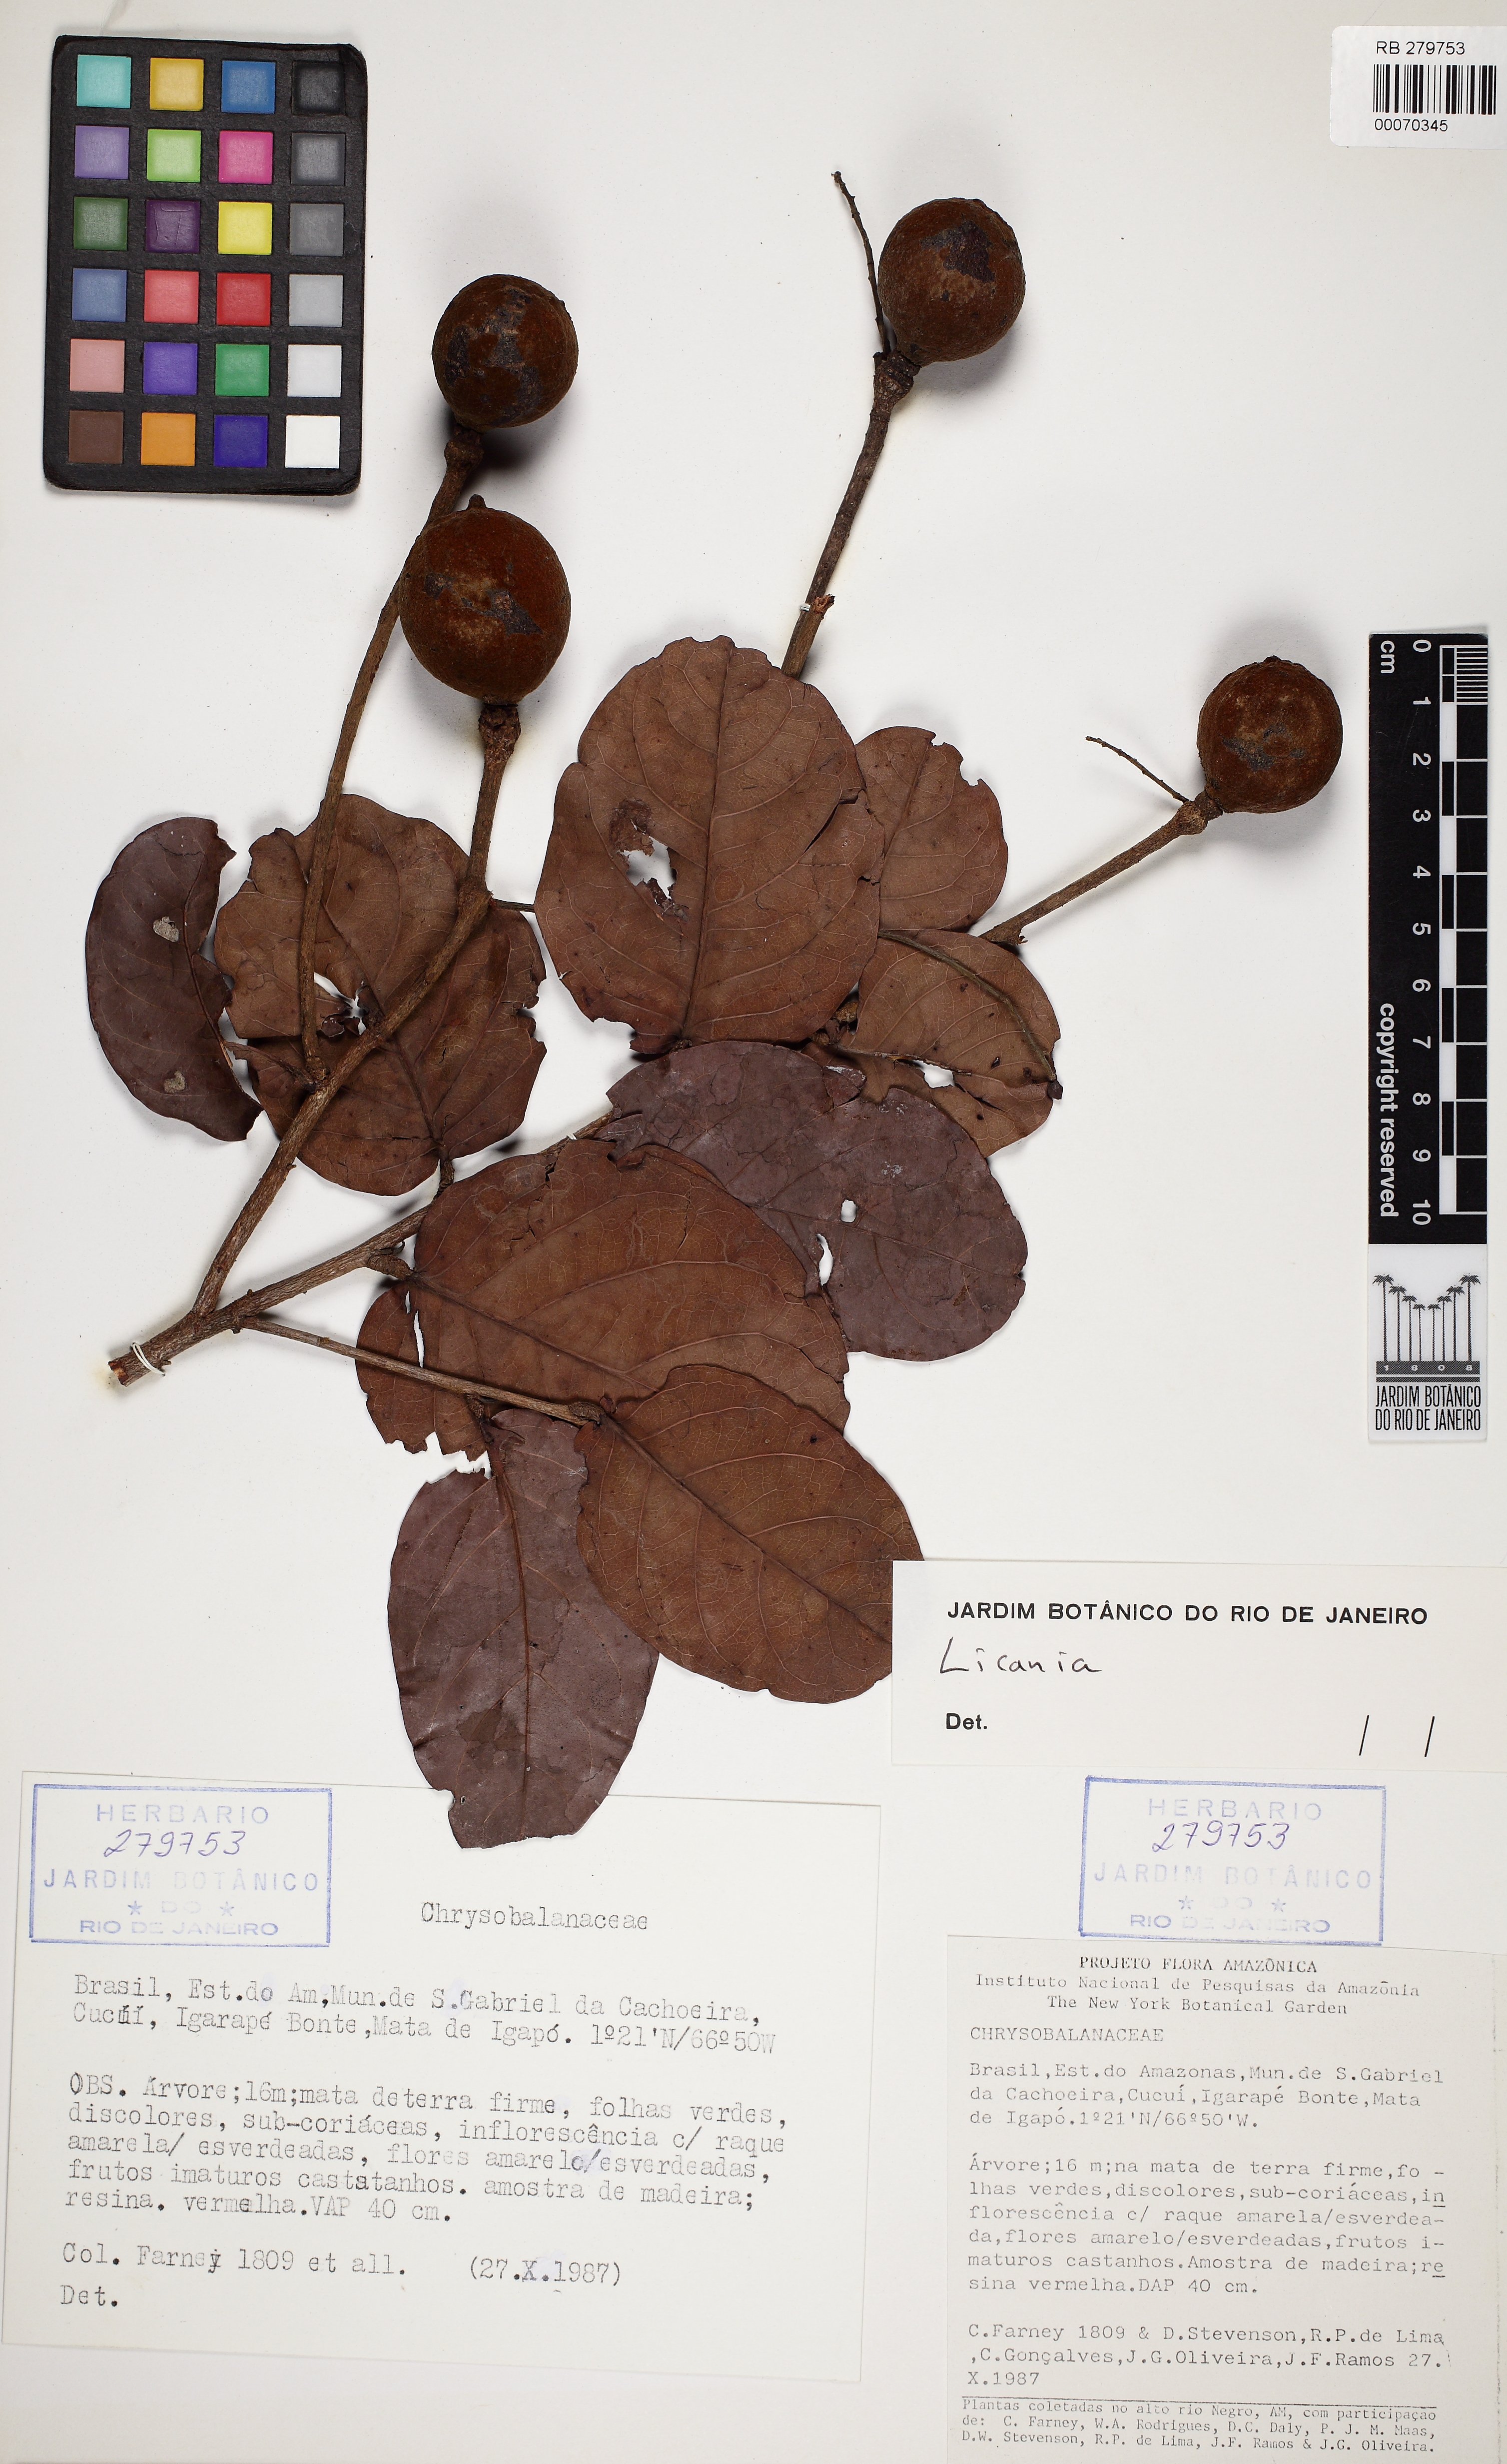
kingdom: Plantae
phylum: Tracheophyta
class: Magnoliopsida
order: Malpighiales
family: Chrysobalanaceae
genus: Licania
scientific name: Licania
